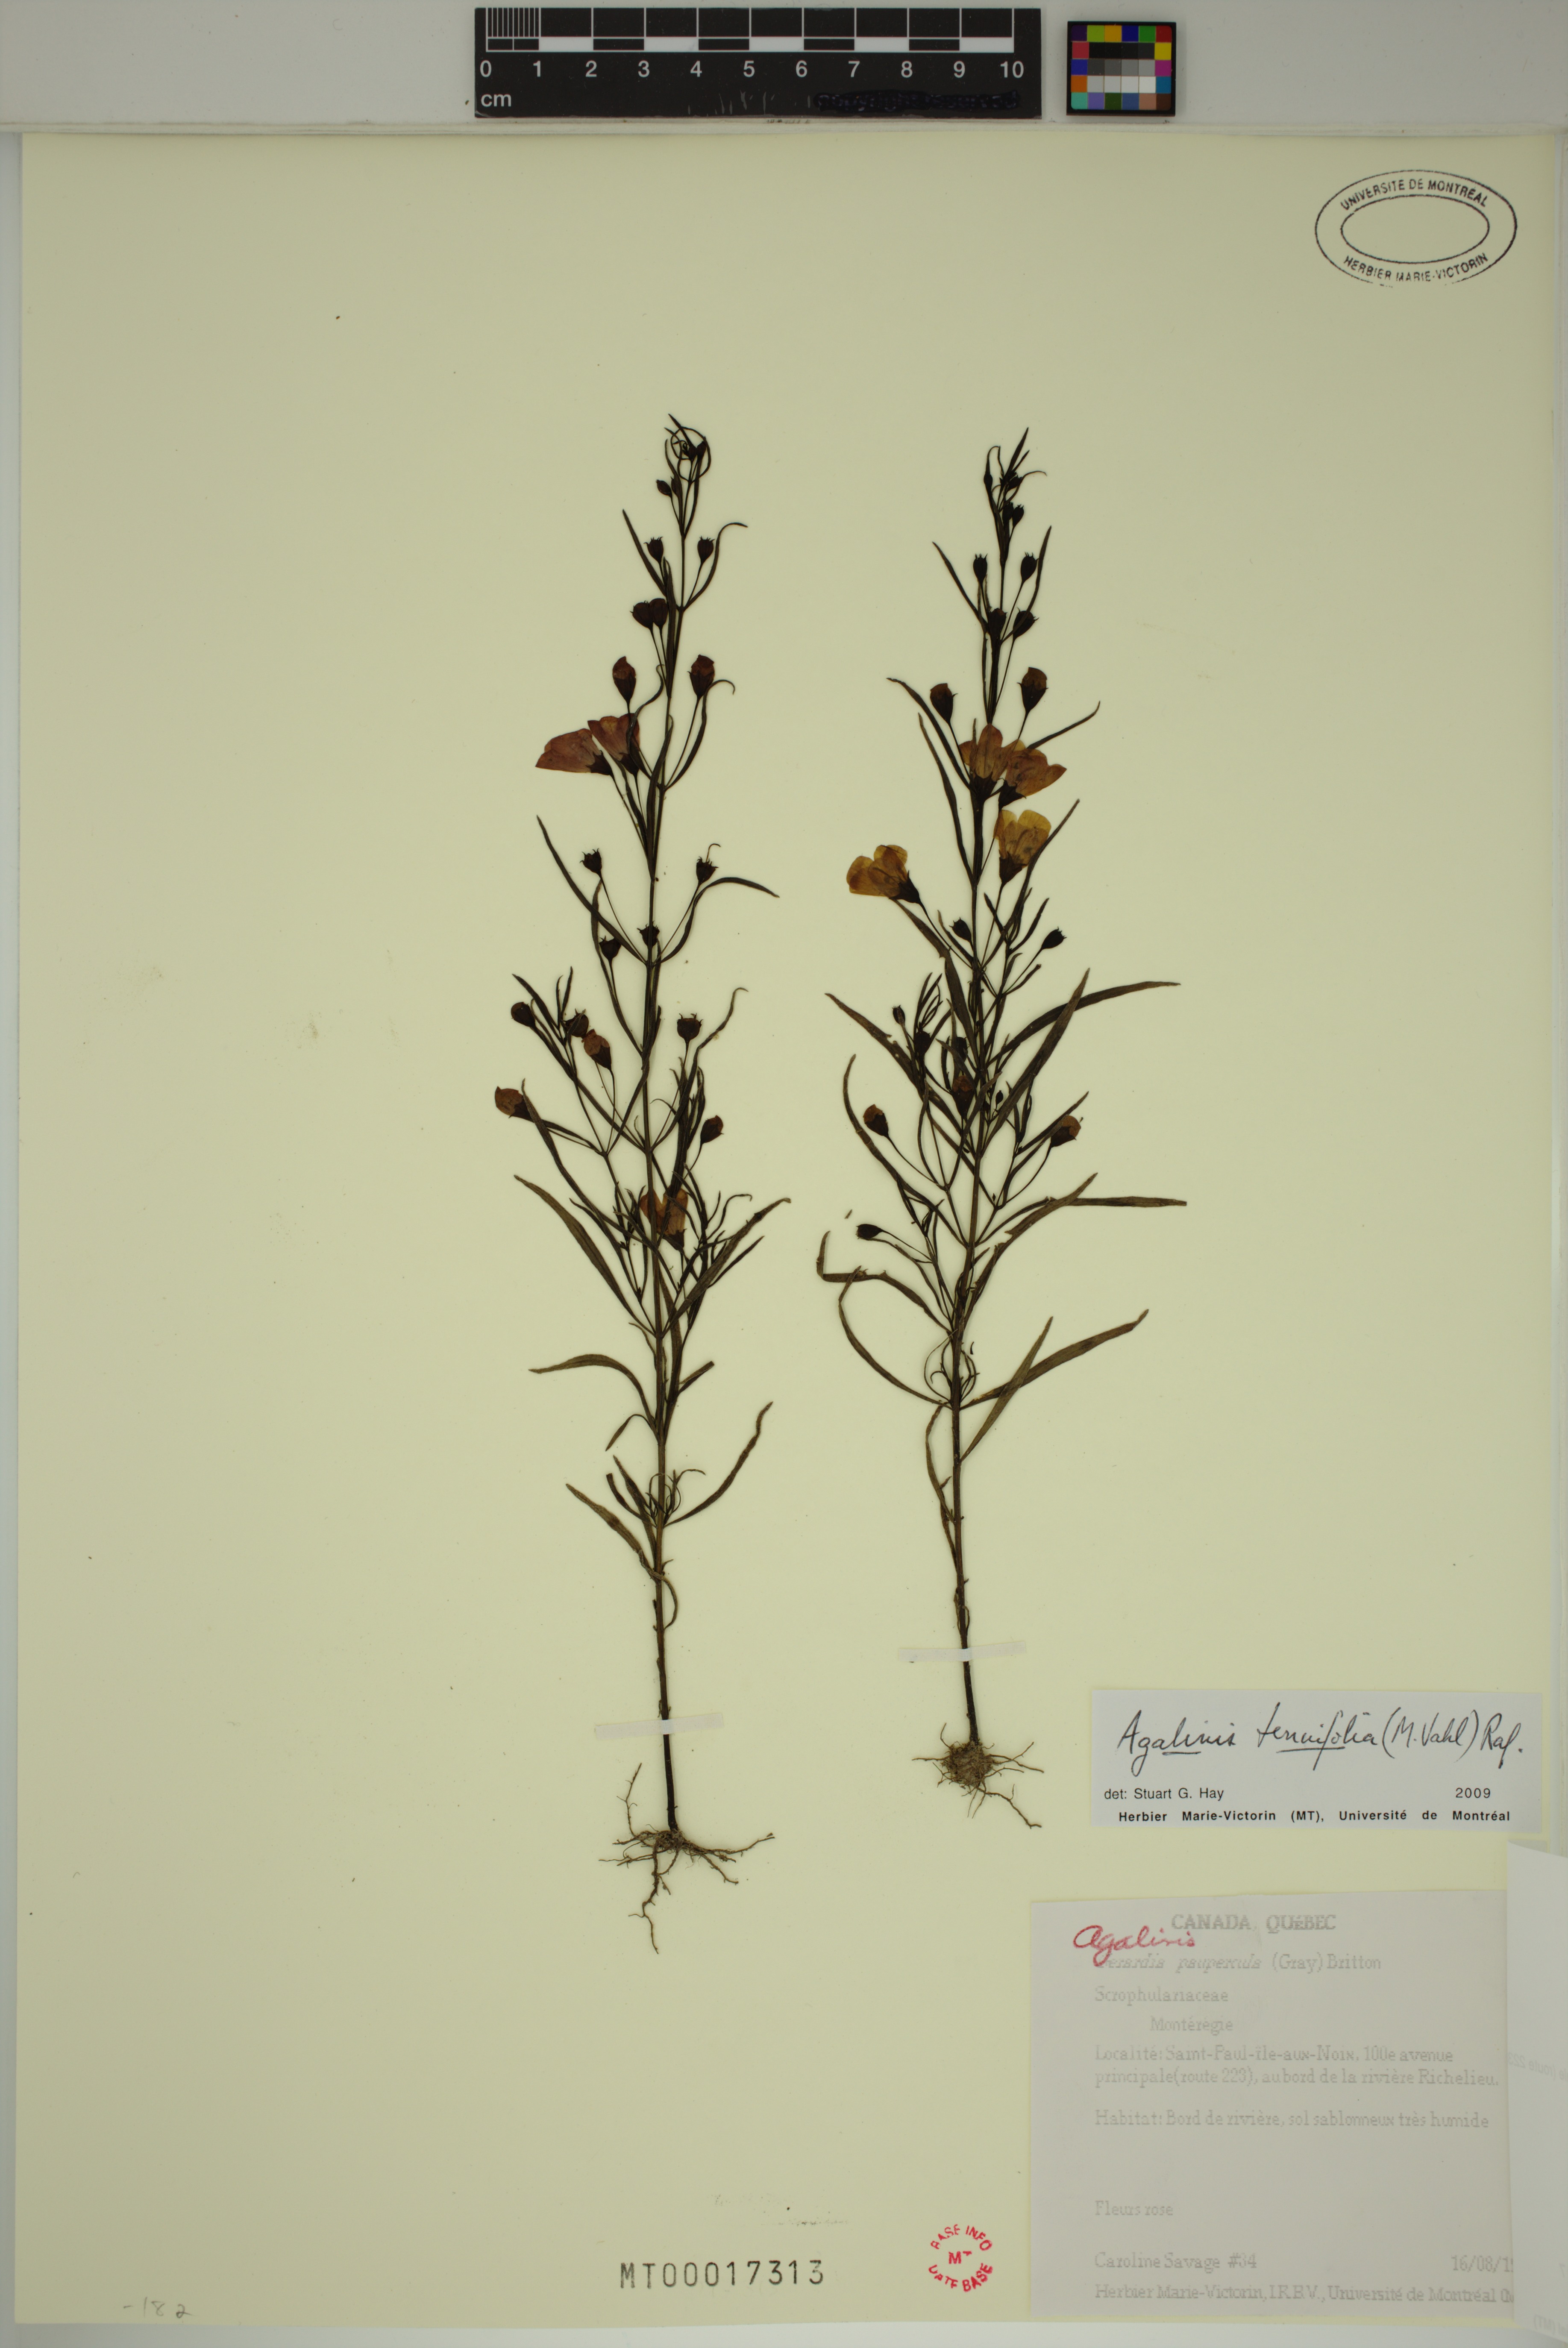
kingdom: Plantae
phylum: Tracheophyta
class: Magnoliopsida
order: Lamiales
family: Orobanchaceae
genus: Agalinis
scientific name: Agalinis tenuifolia
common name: Slender agalinis
